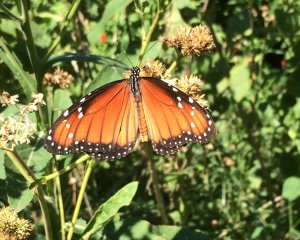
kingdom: Animalia
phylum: Arthropoda
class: Insecta
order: Lepidoptera
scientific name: Lepidoptera
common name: Butterflies
